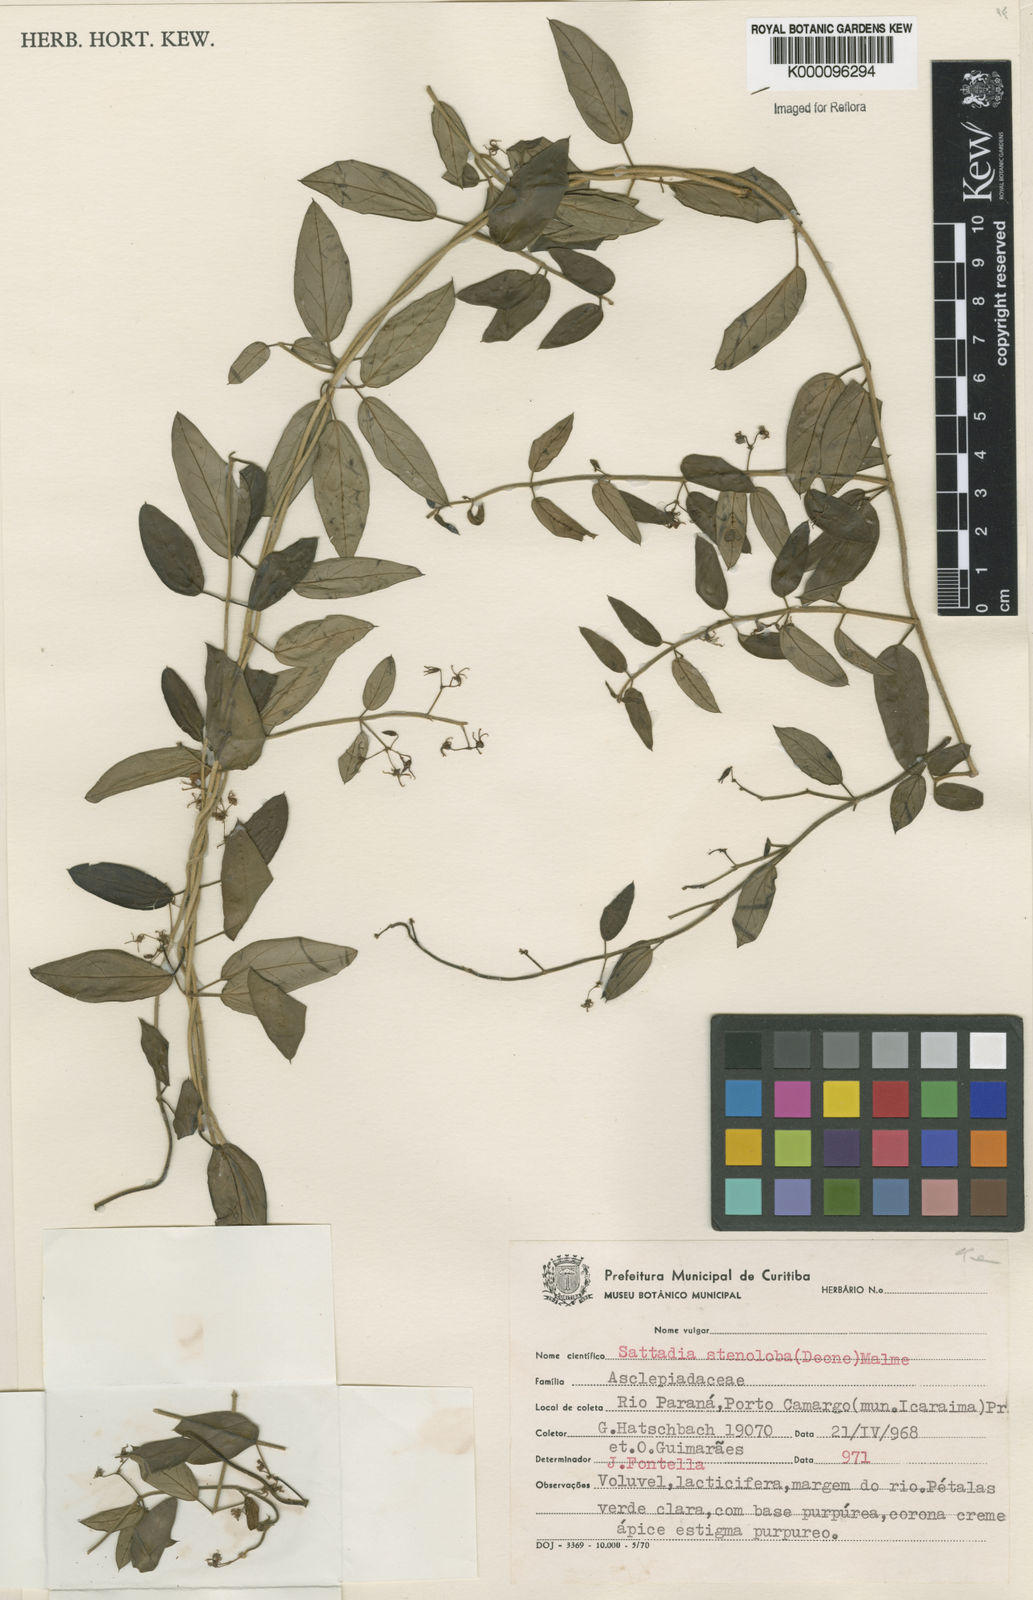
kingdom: Plantae
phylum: Tracheophyta
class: Magnoliopsida
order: Gentianales
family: Apocynaceae
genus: Tassadia
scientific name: Tassadia
